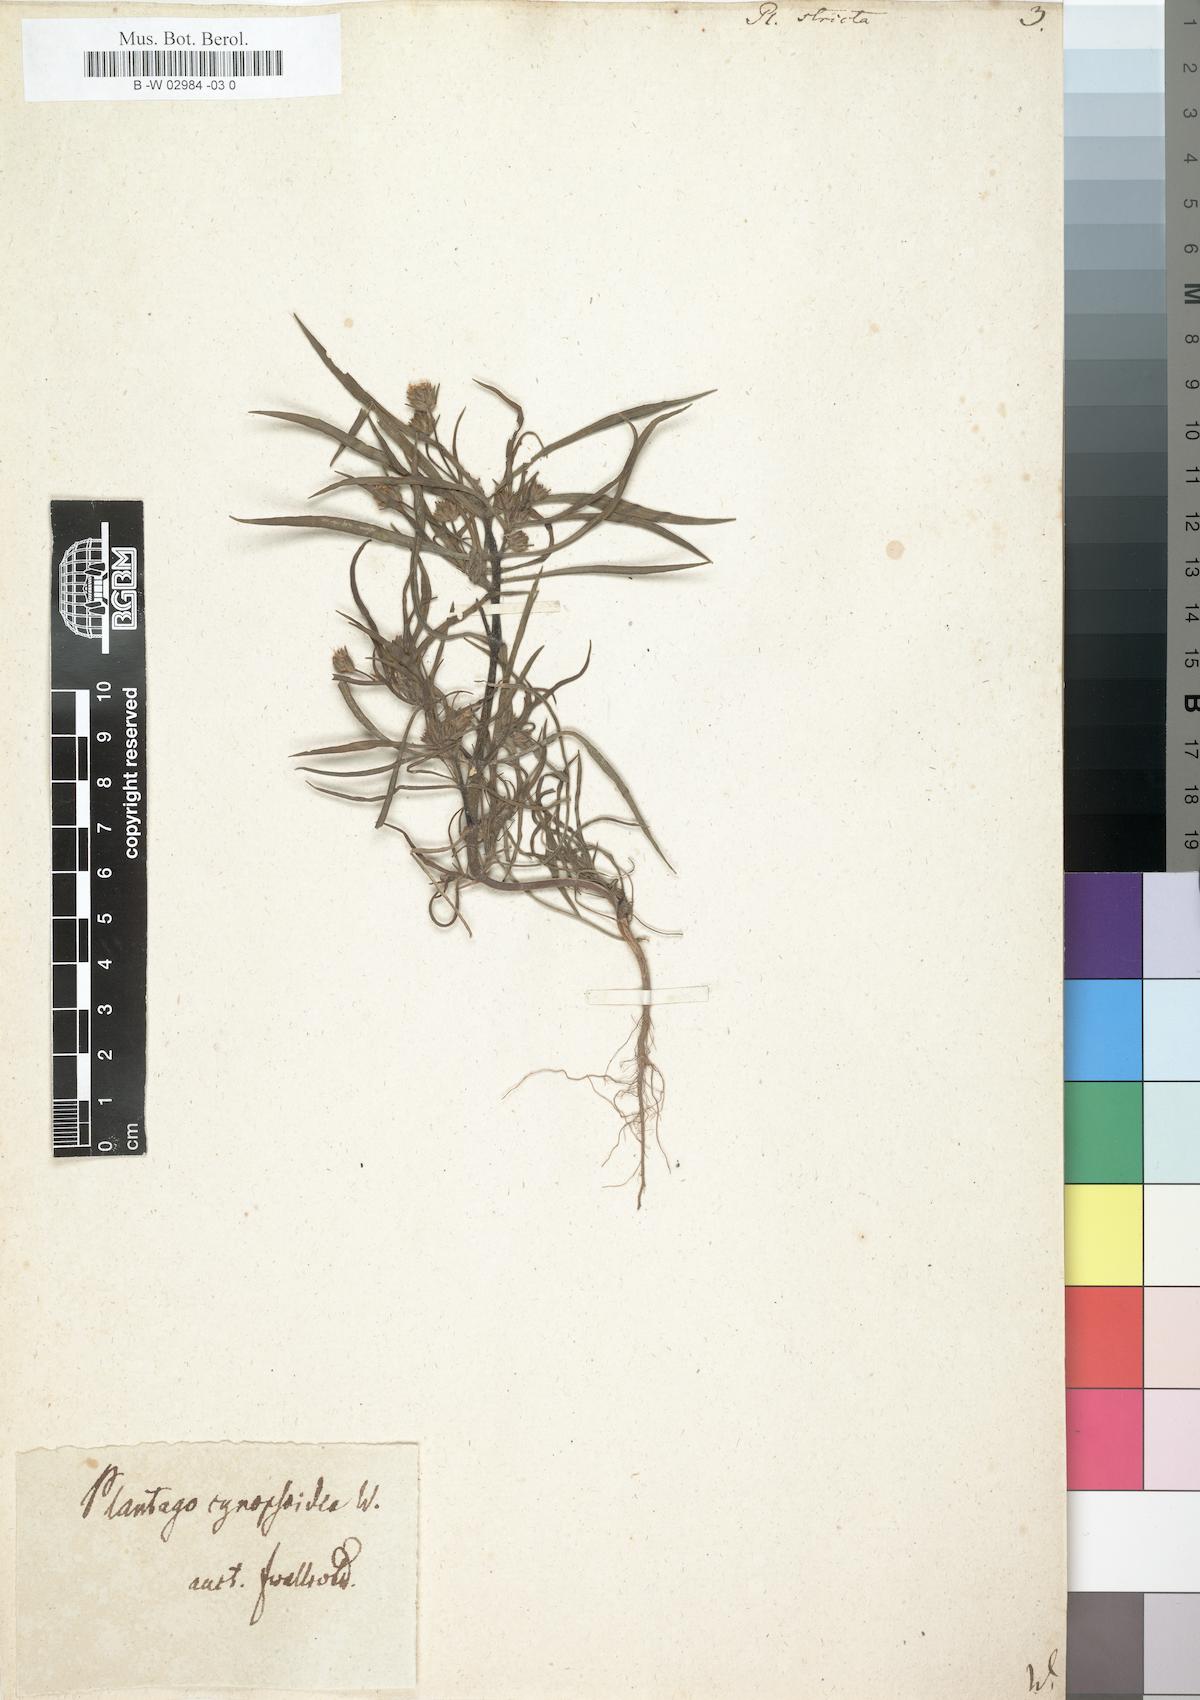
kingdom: Plantae
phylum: Tracheophyta
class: Magnoliopsida
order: Lamiales
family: Plantaginaceae
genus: Plantago
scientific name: Plantago
